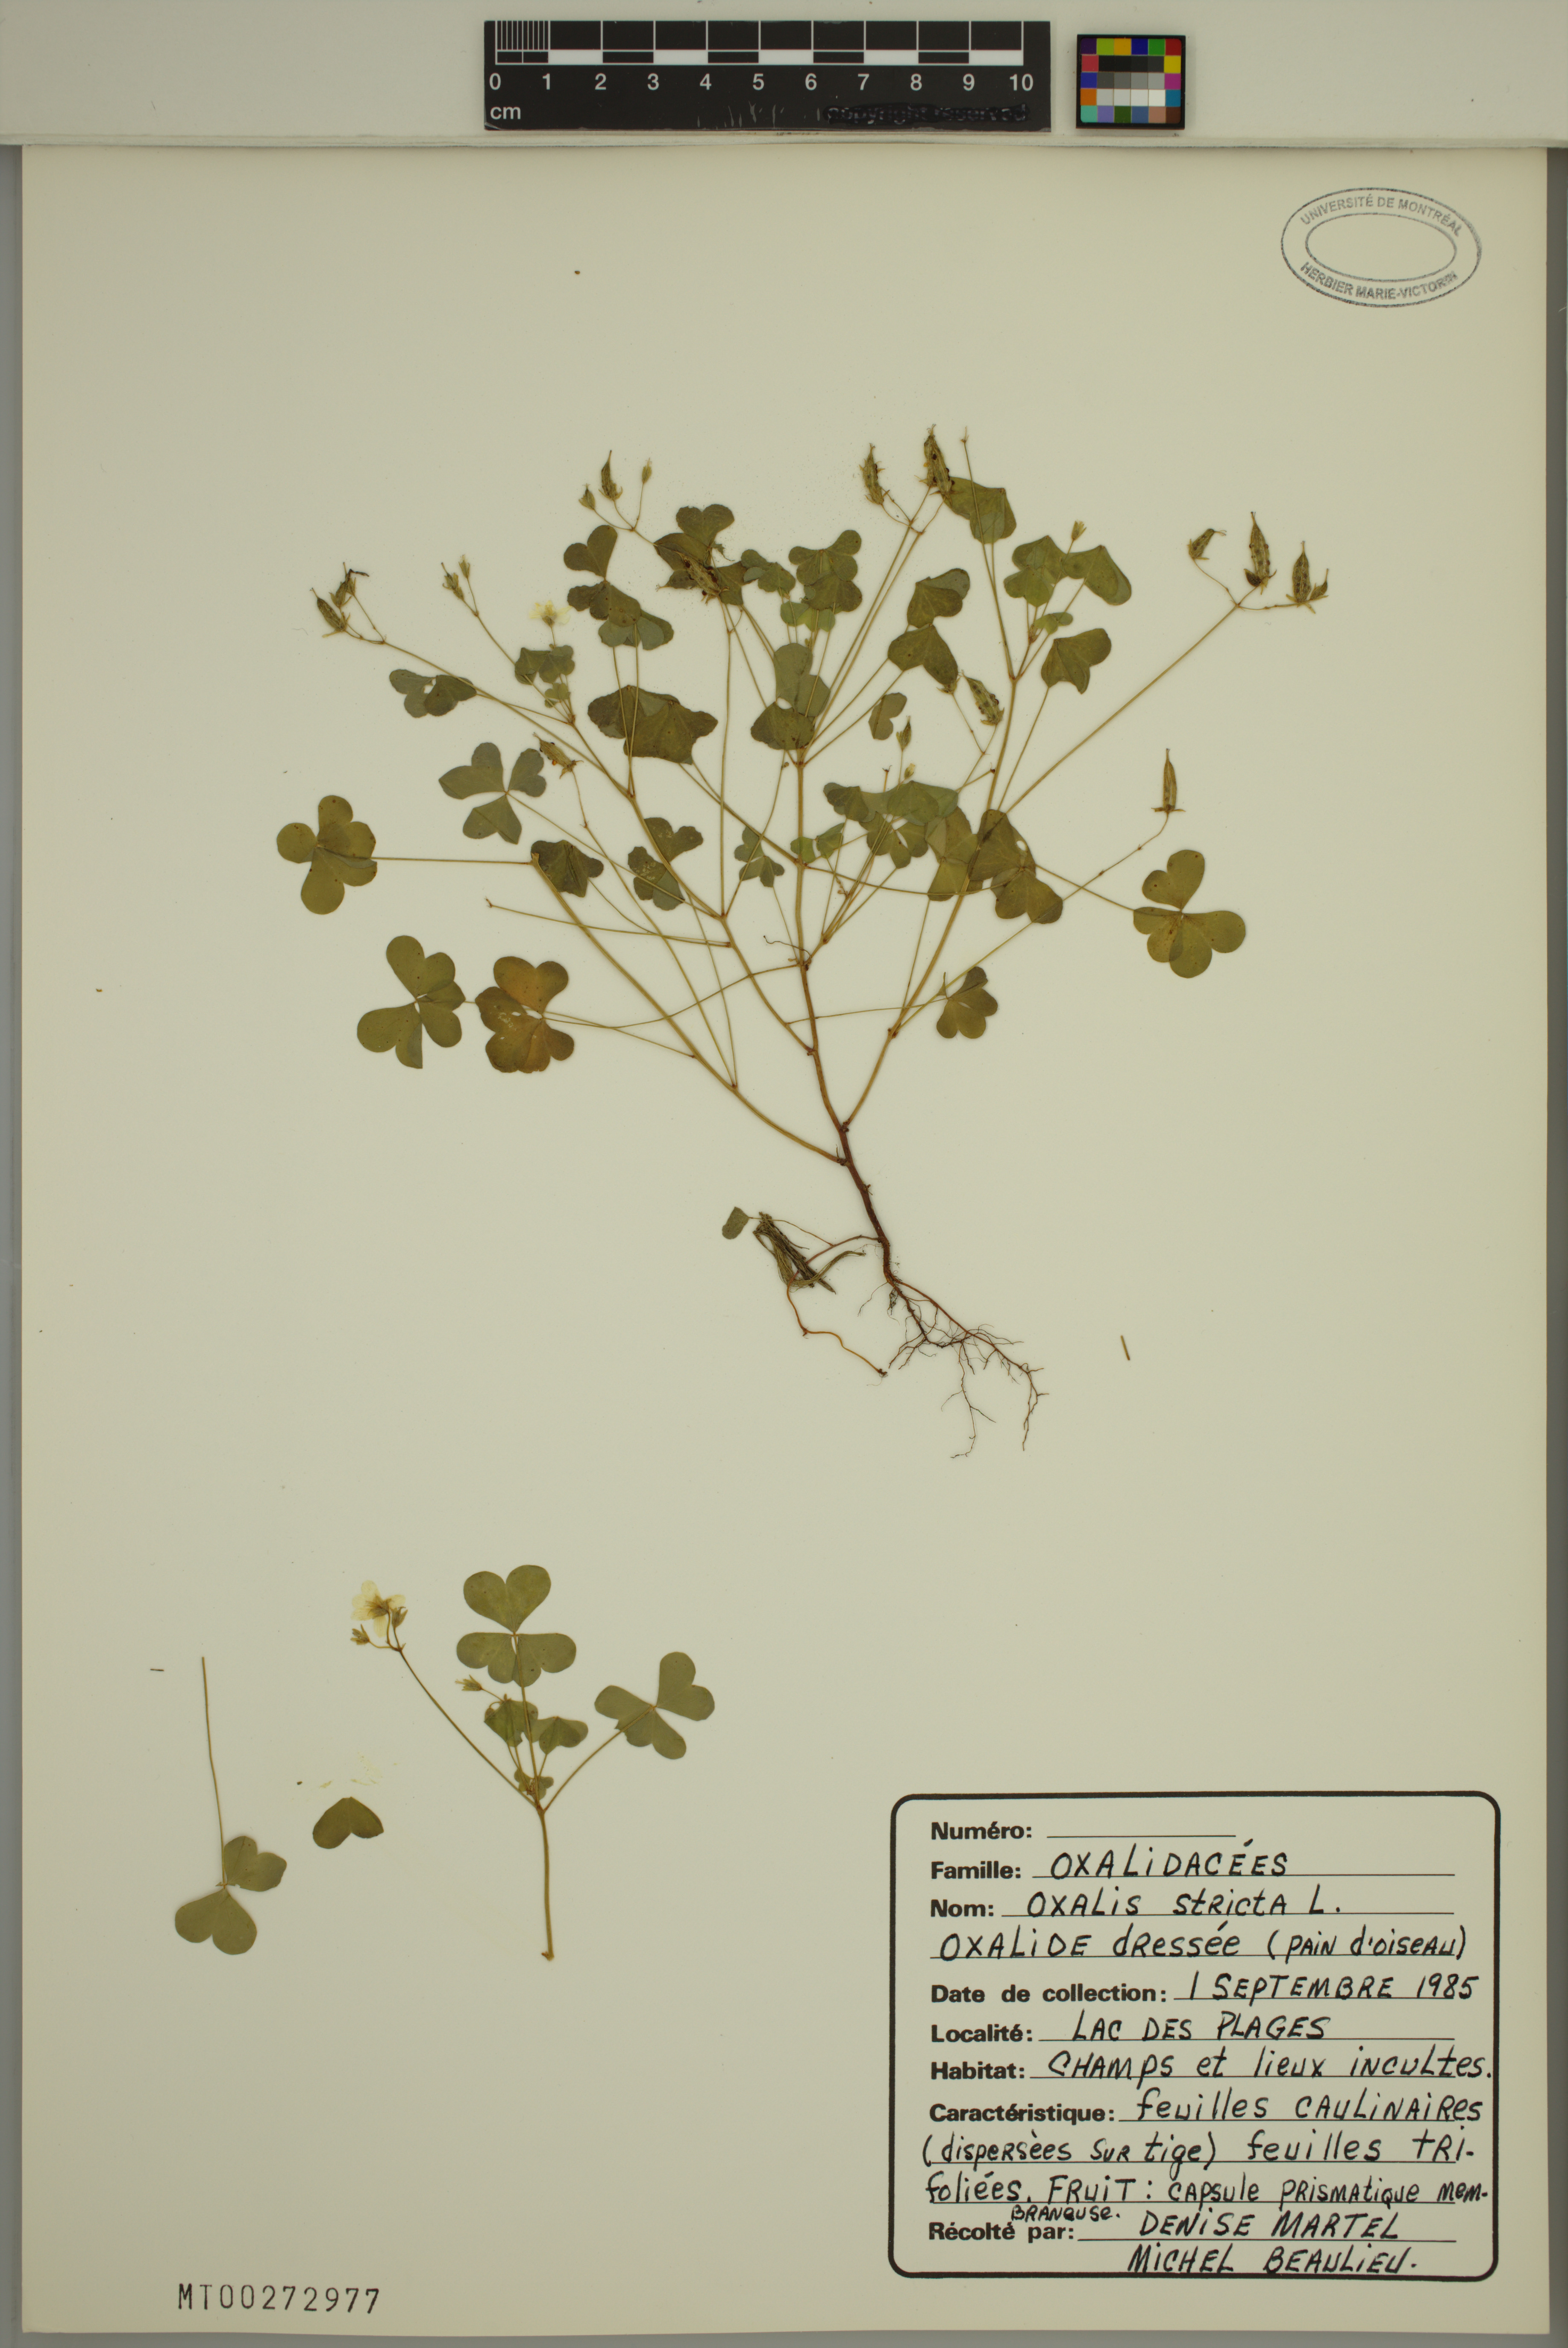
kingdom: Plantae
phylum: Tracheophyta
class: Magnoliopsida
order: Oxalidales
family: Oxalidaceae
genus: Oxalis
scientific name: Oxalis stricta
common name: Upright yellow-sorrel
